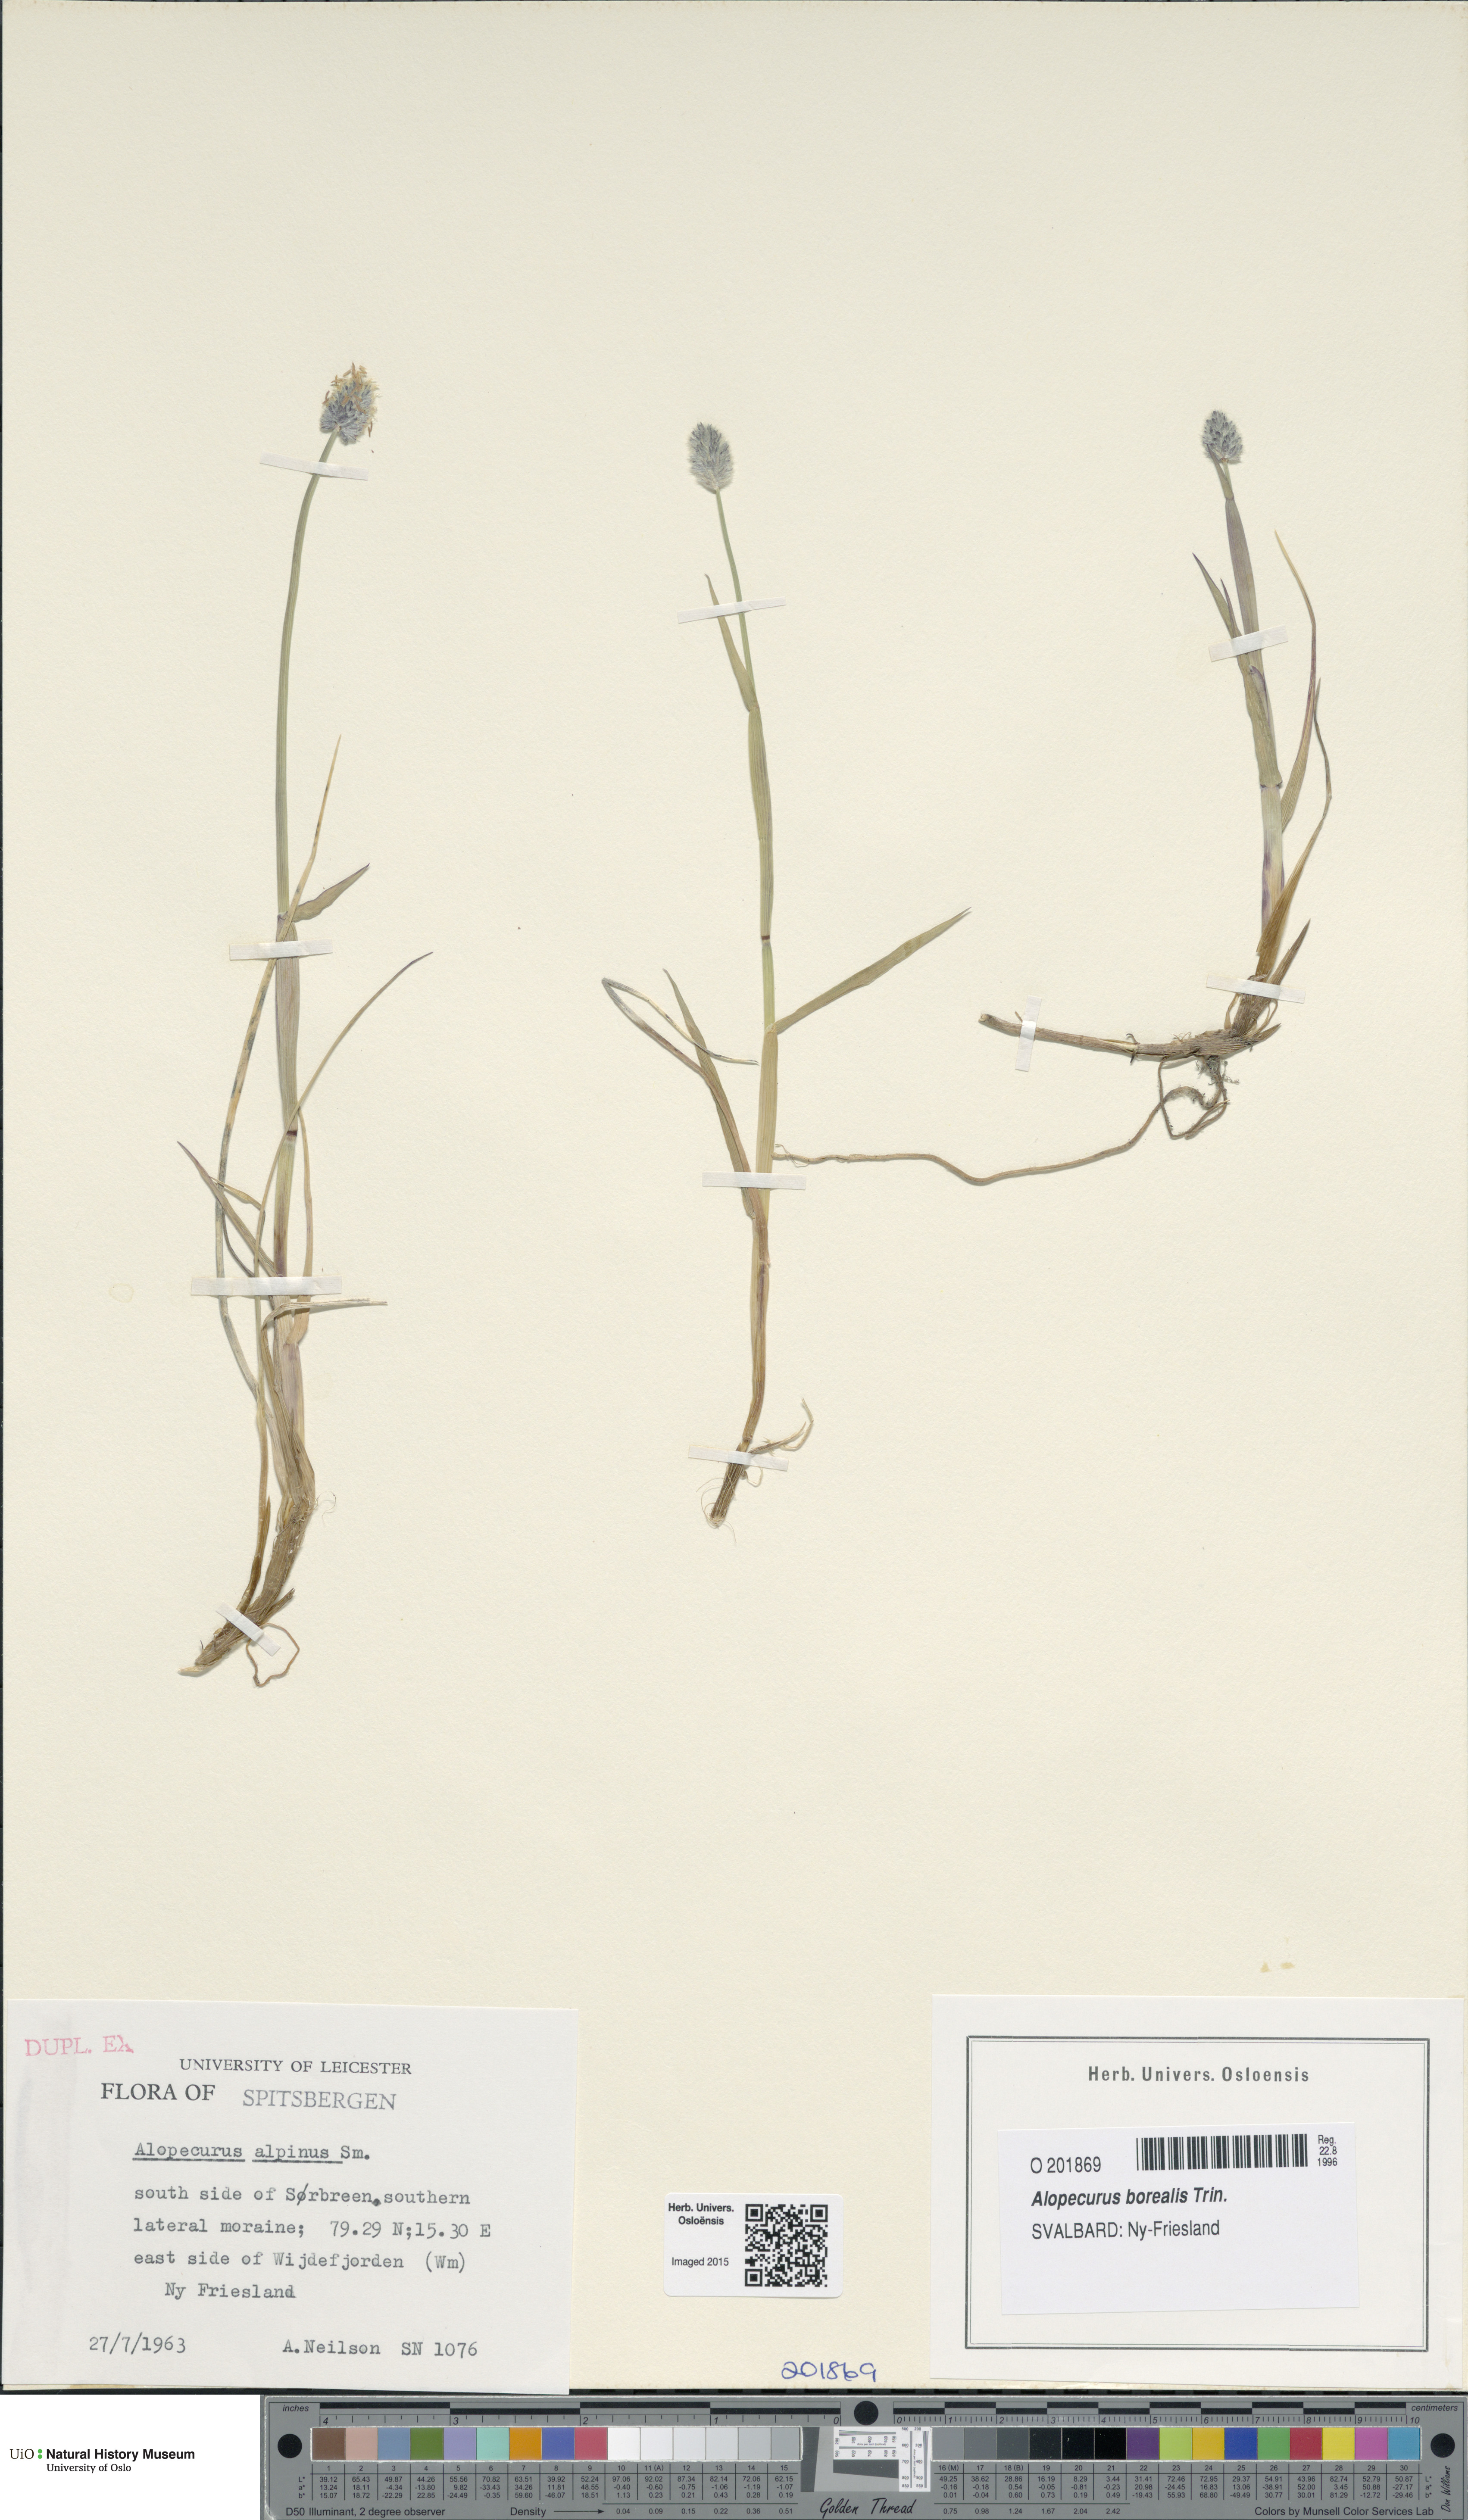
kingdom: Plantae
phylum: Tracheophyta
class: Liliopsida
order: Poales
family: Poaceae
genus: Alopecurus
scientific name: Alopecurus magellanicus
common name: Alpine foxtail
